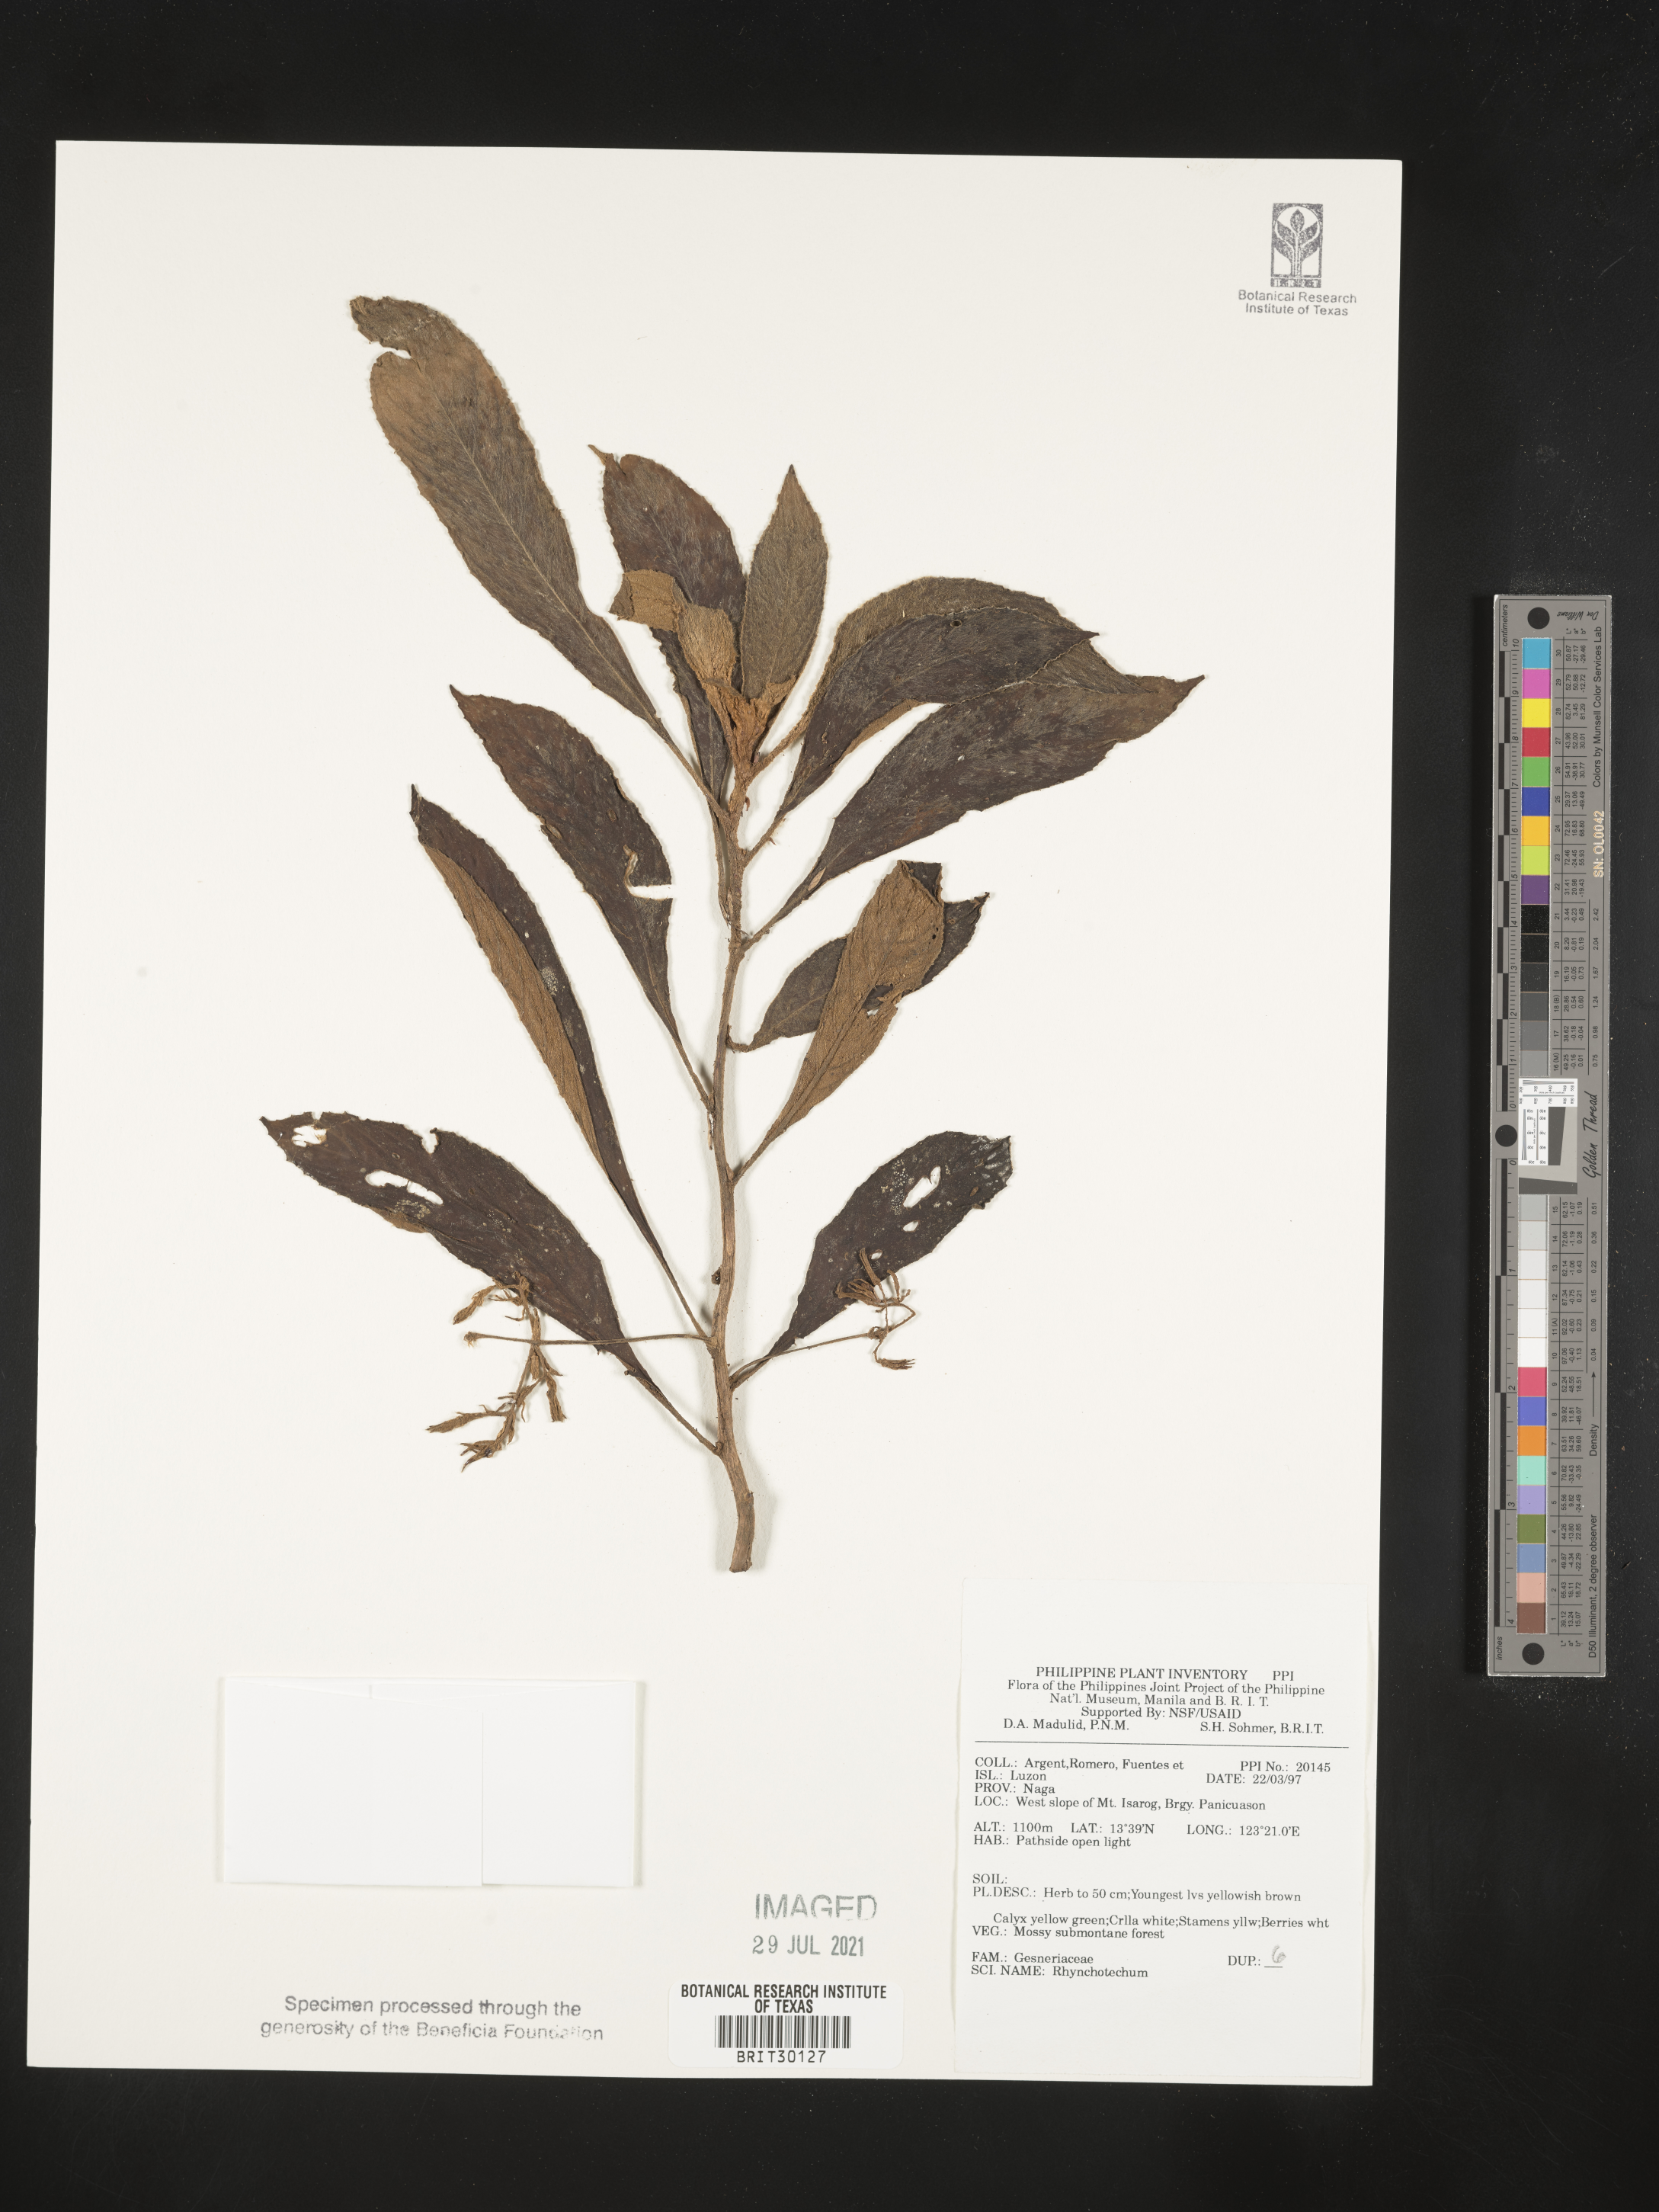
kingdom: Plantae
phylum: Tracheophyta
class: Magnoliopsida
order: Lamiales
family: Gesneriaceae
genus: Rhynchotechum
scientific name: Rhynchotechum
